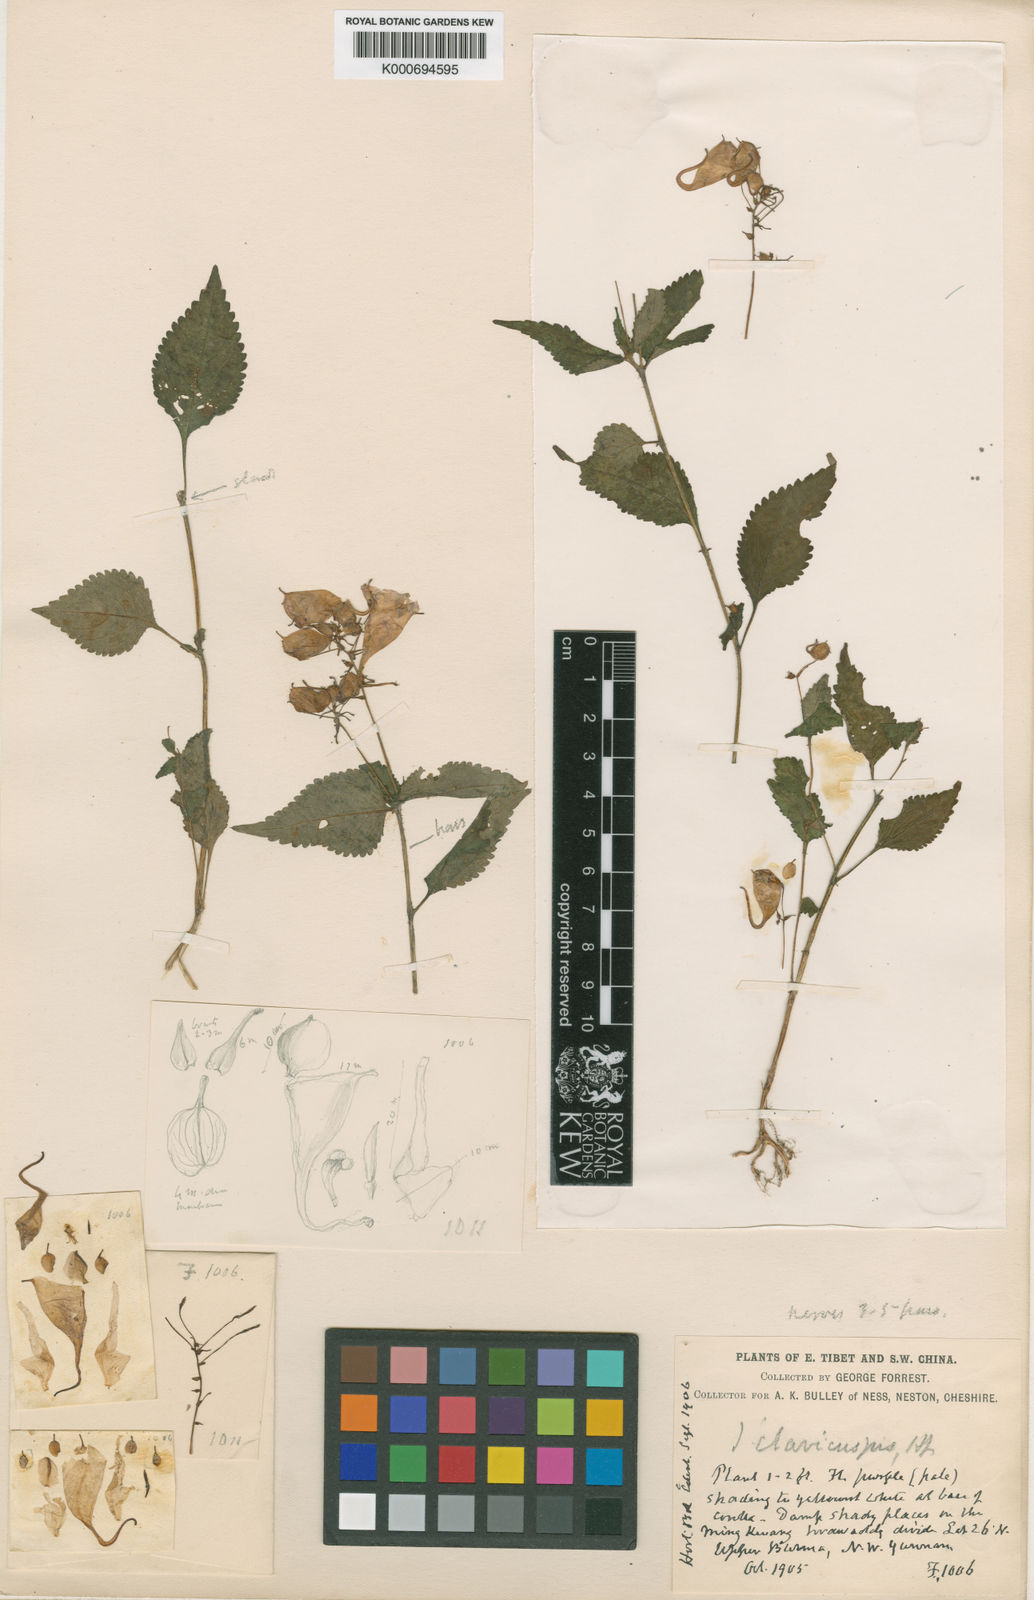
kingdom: Plantae
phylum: Tracheophyta
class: Magnoliopsida
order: Ericales
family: Balsaminaceae
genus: Impatiens
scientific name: Impatiens clavicuspis
